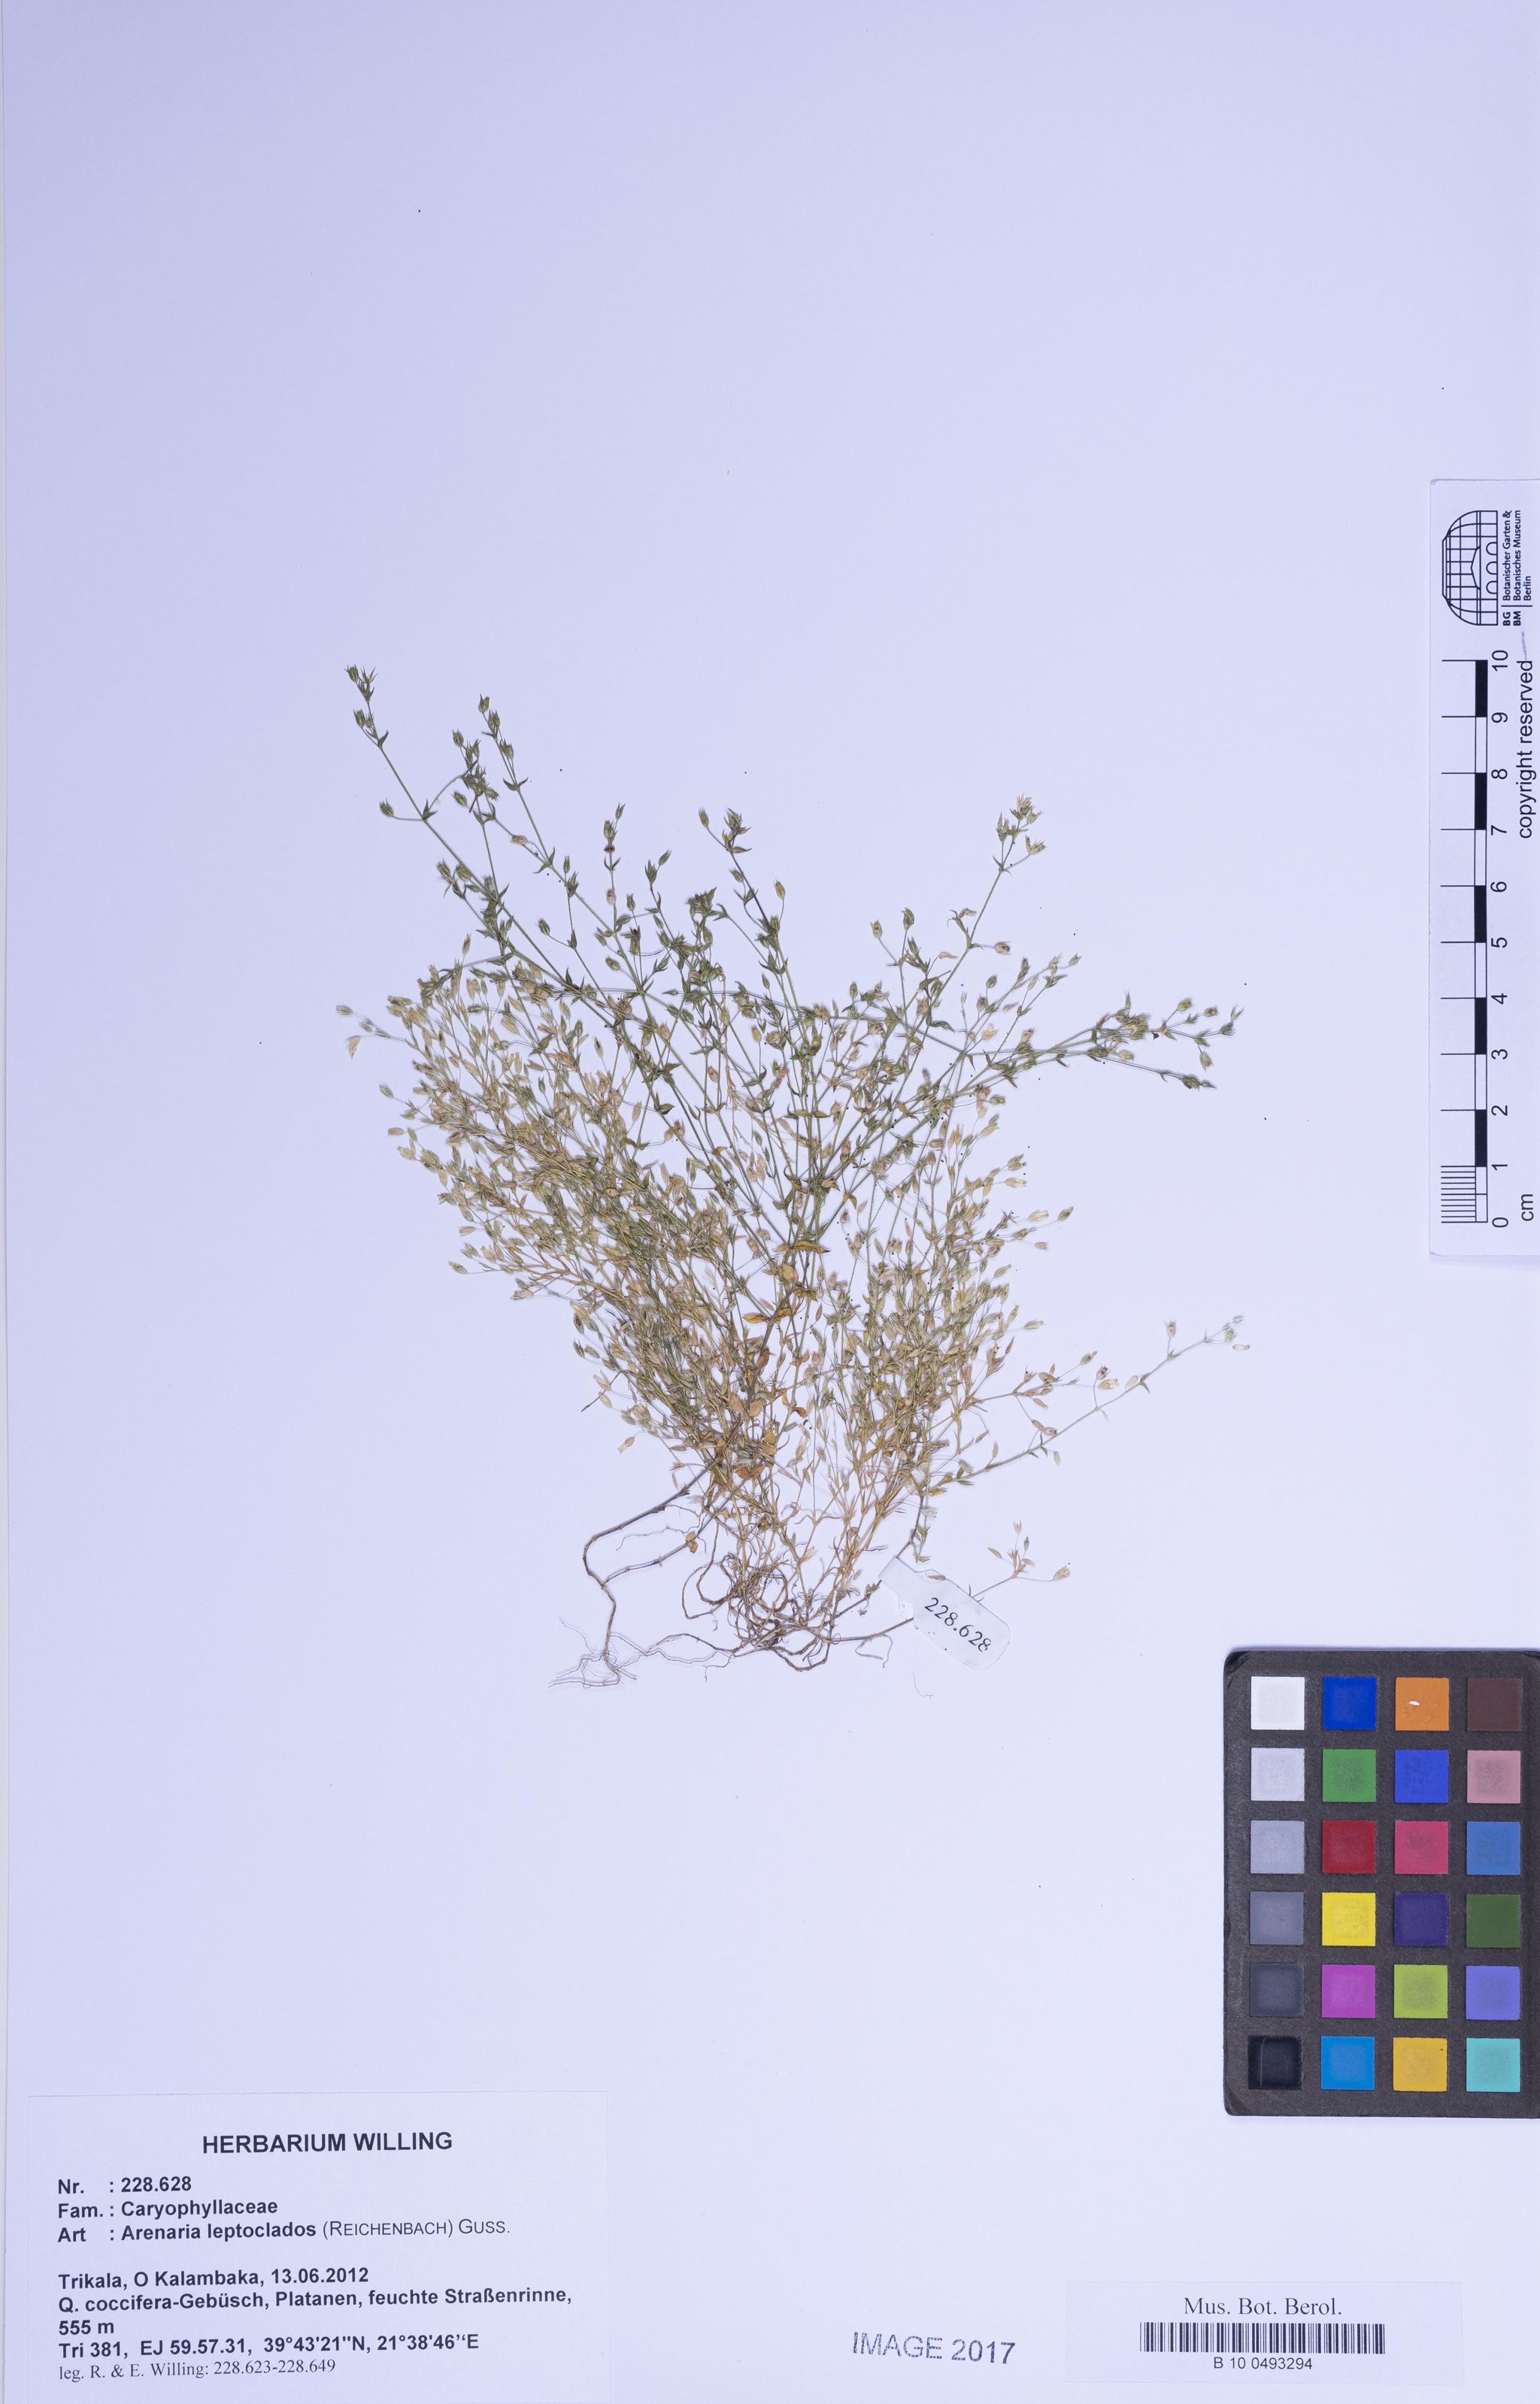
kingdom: Plantae
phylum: Tracheophyta
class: Magnoliopsida
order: Caryophyllales
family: Caryophyllaceae
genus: Arenaria
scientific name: Arenaria leptoclados
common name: Thyme-leaved sandwort
